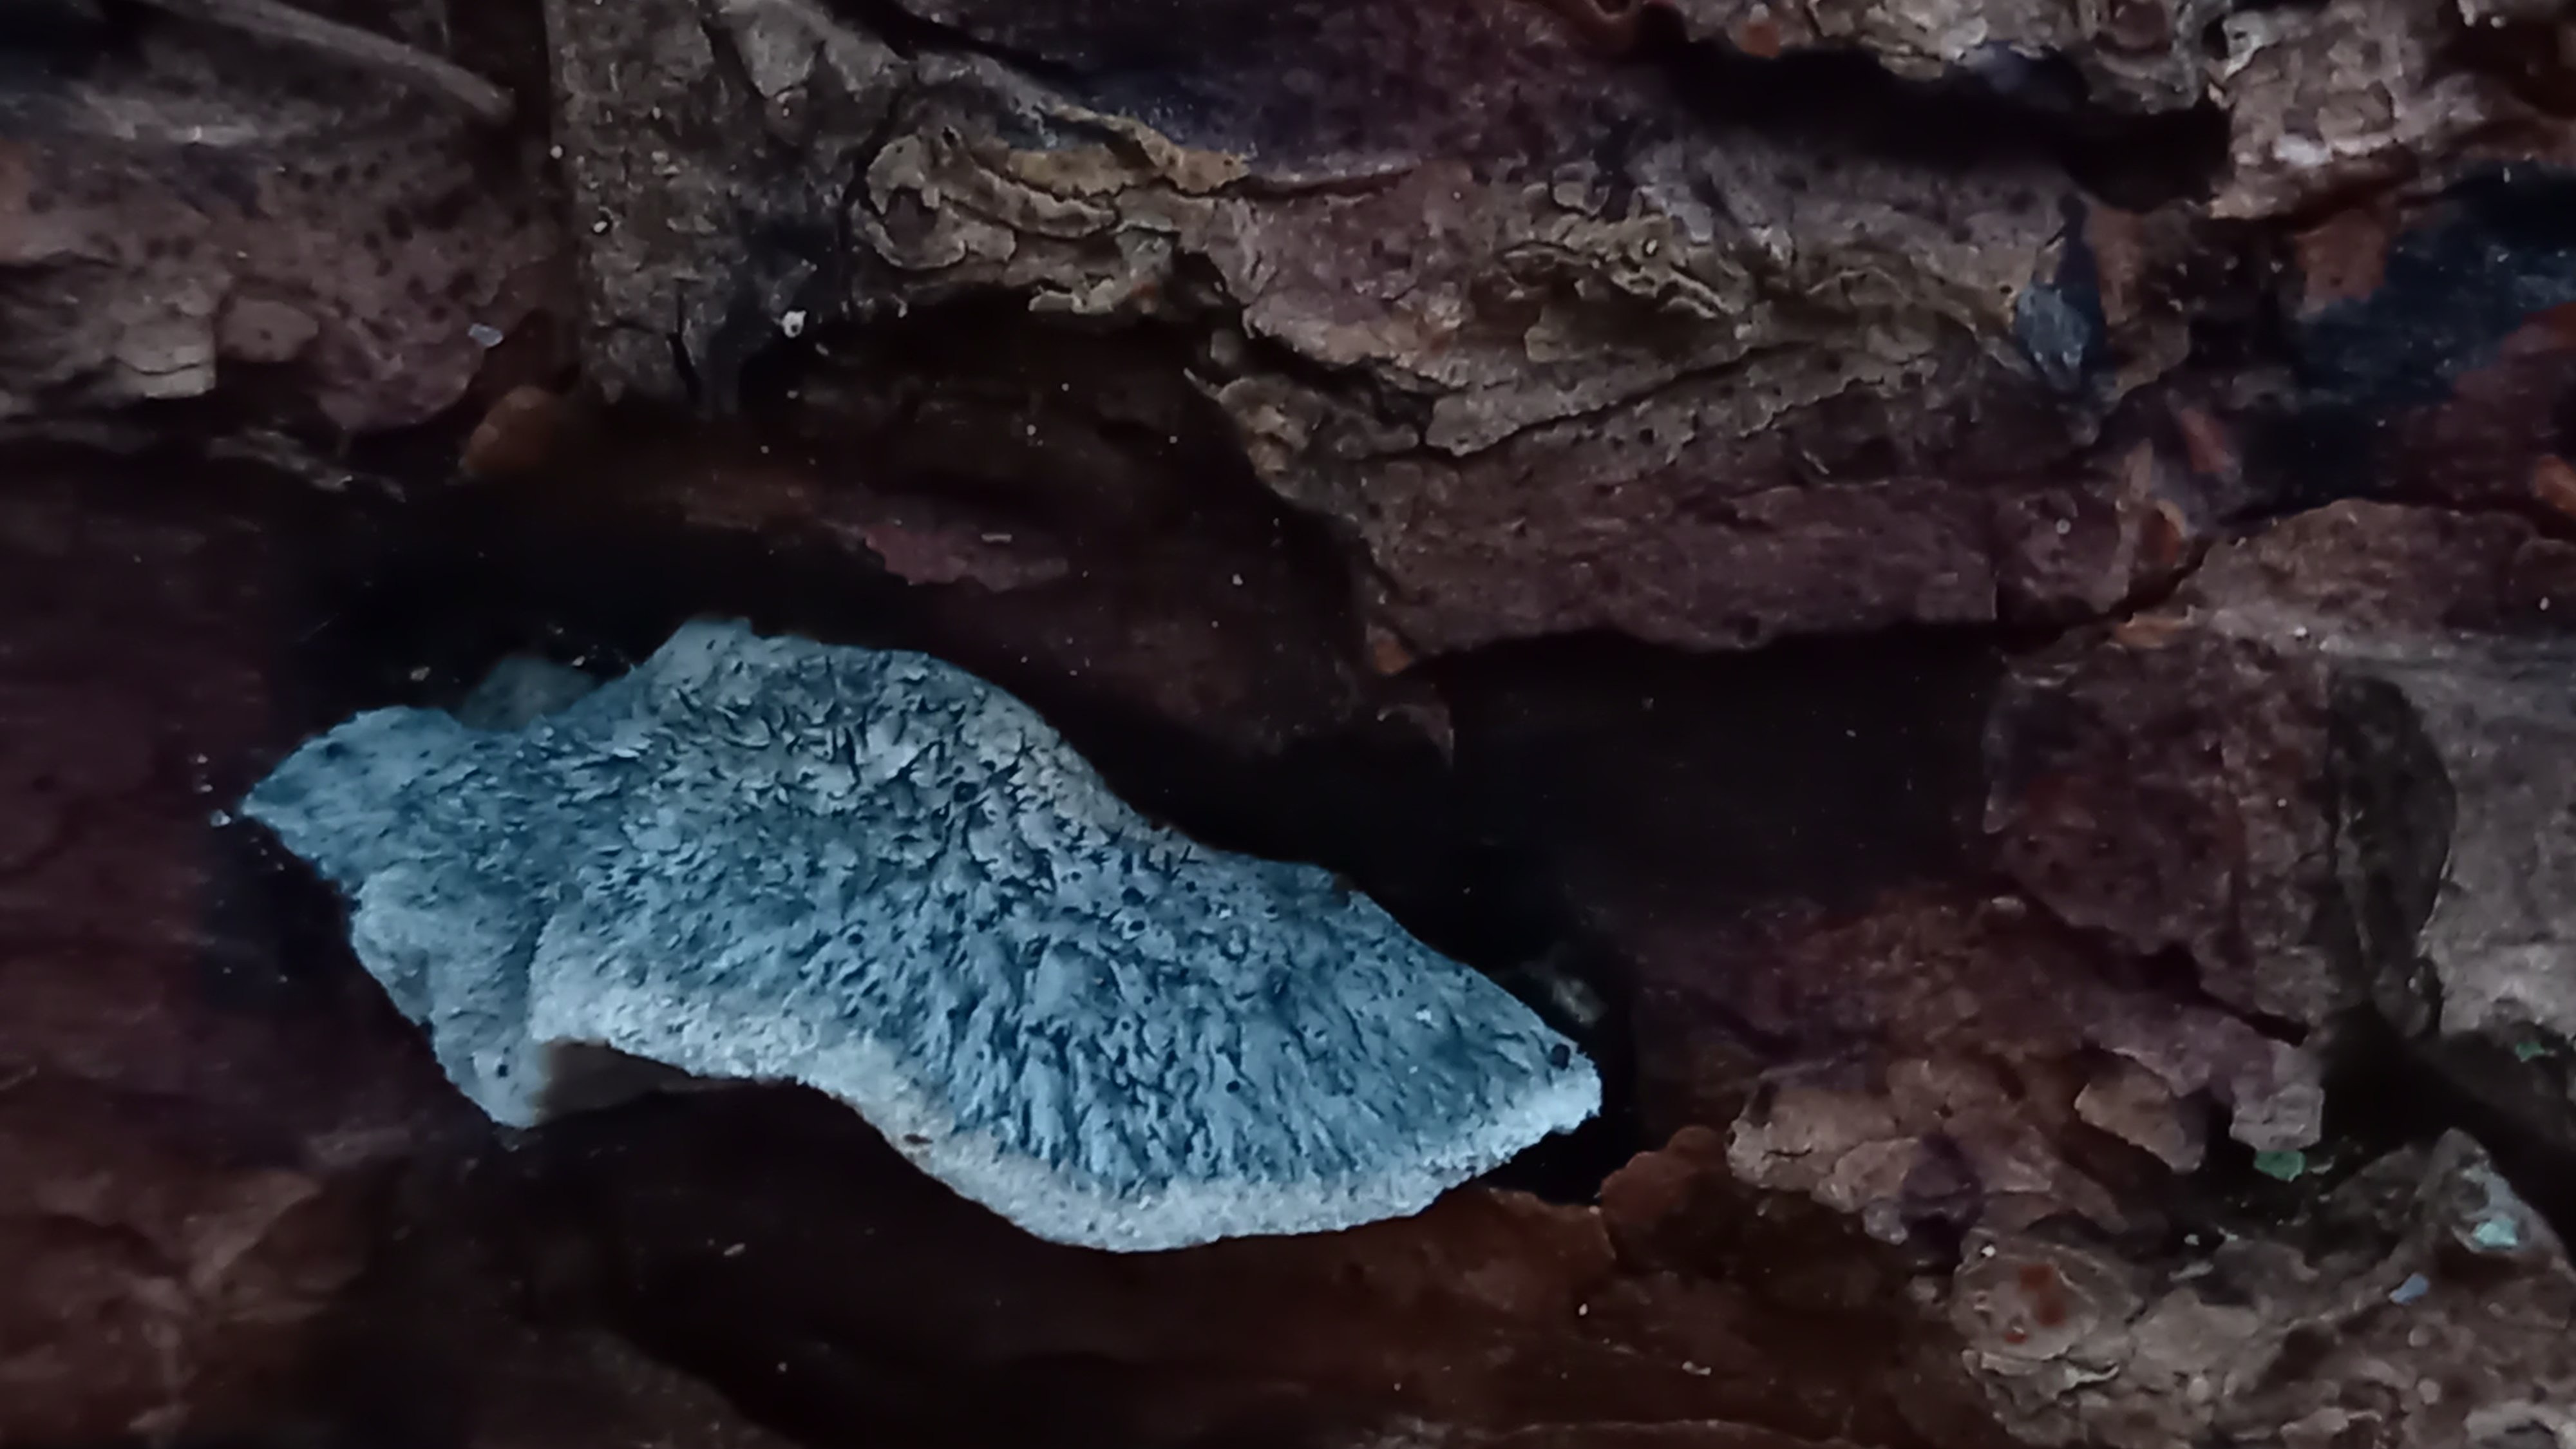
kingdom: Fungi
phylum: Basidiomycota
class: Agaricomycetes
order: Polyporales
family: Polyporaceae
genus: Cyanosporus
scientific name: Cyanosporus caesius
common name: blålig kødporesvamp
